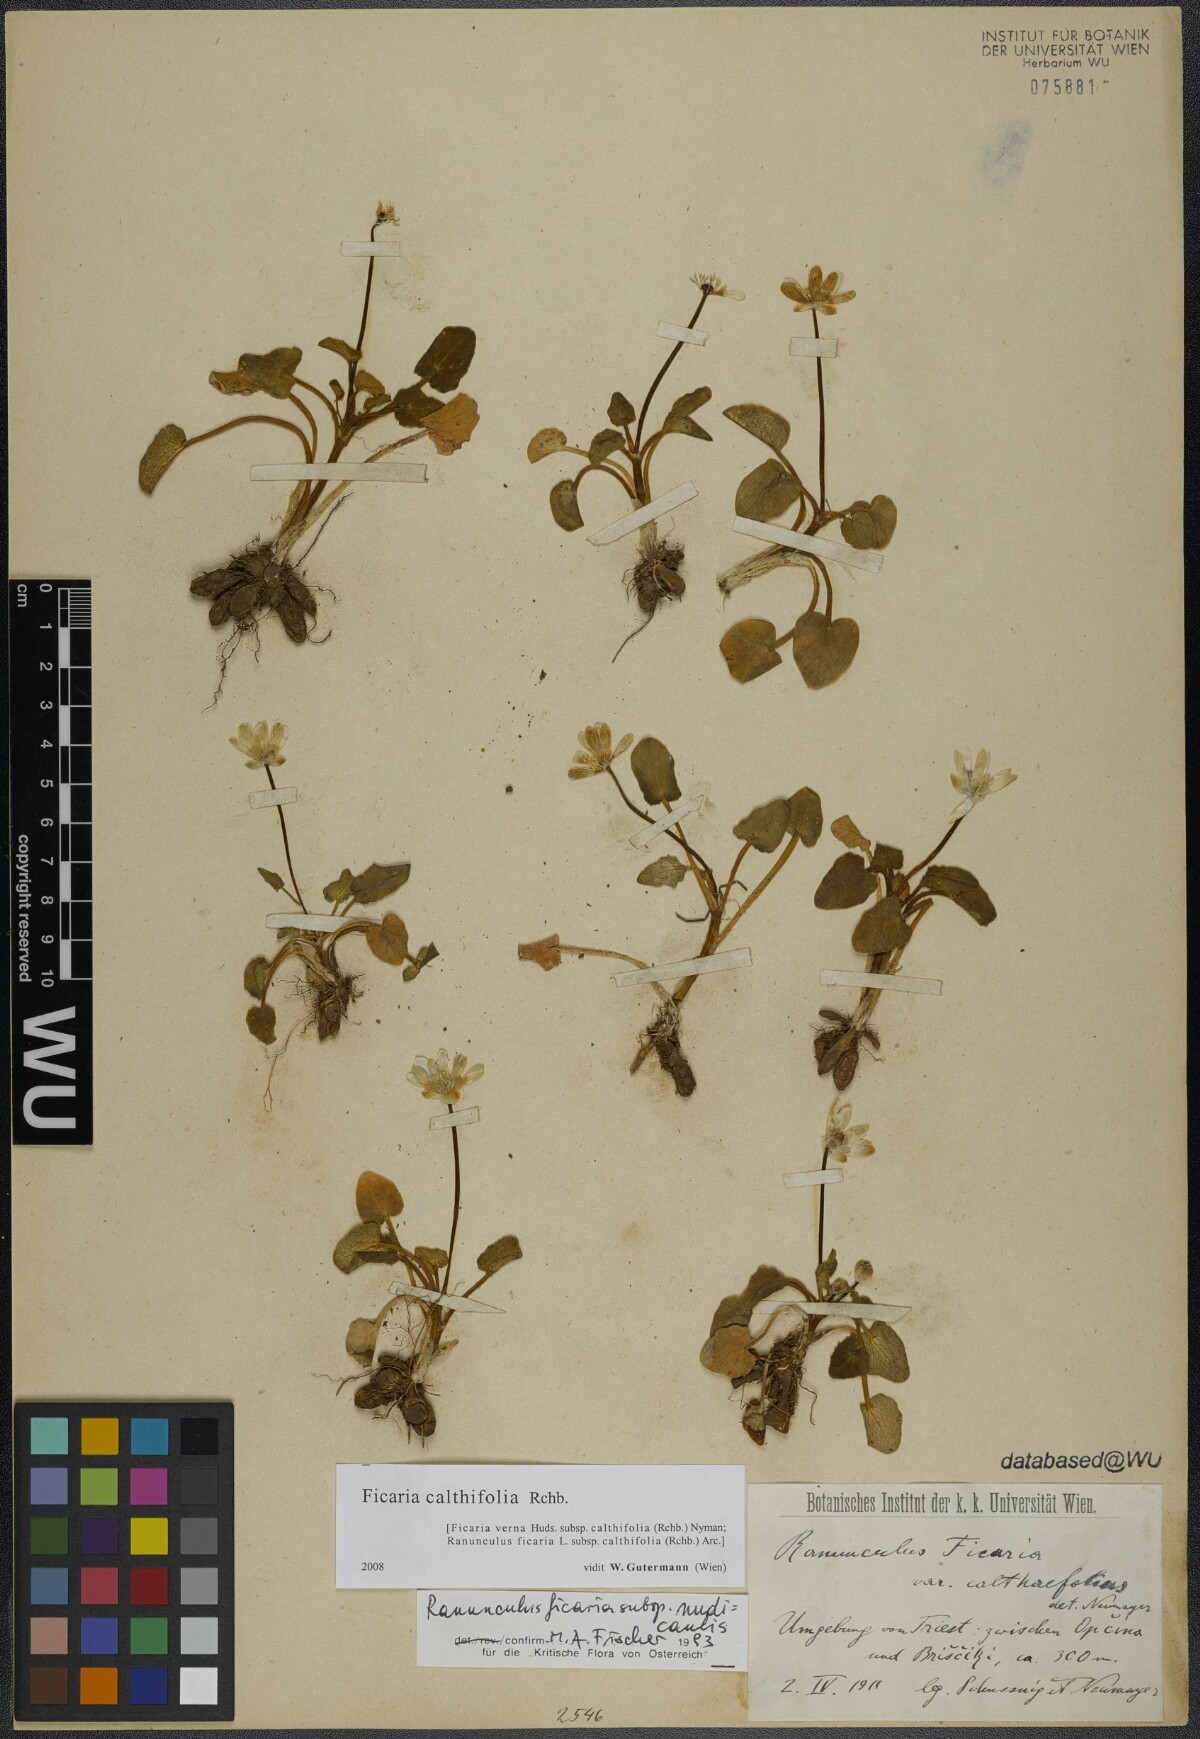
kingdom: Plantae
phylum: Tracheophyta
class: Magnoliopsida
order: Ranunculales
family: Ranunculaceae
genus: Ficaria
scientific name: Ficaria calthifolia
